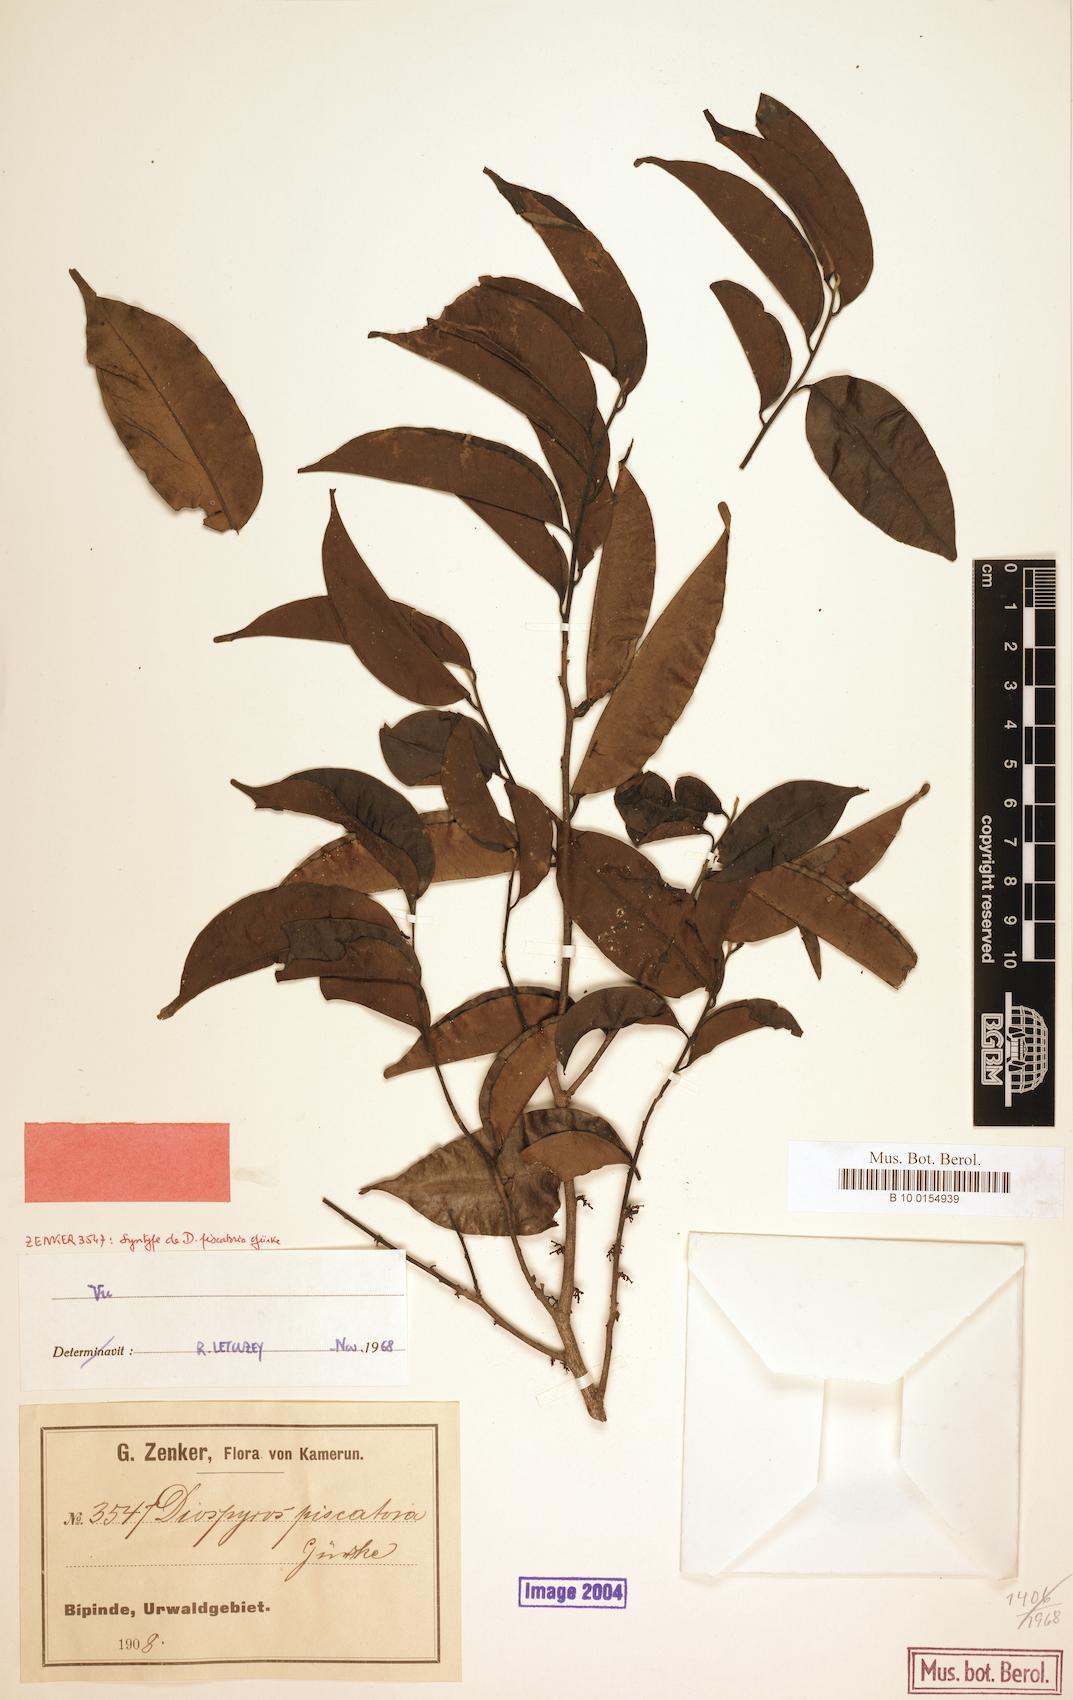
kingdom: Plantae
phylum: Tracheophyta
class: Magnoliopsida
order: Ericales
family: Ebenaceae
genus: Diospyros
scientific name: Diospyros piscatoria
